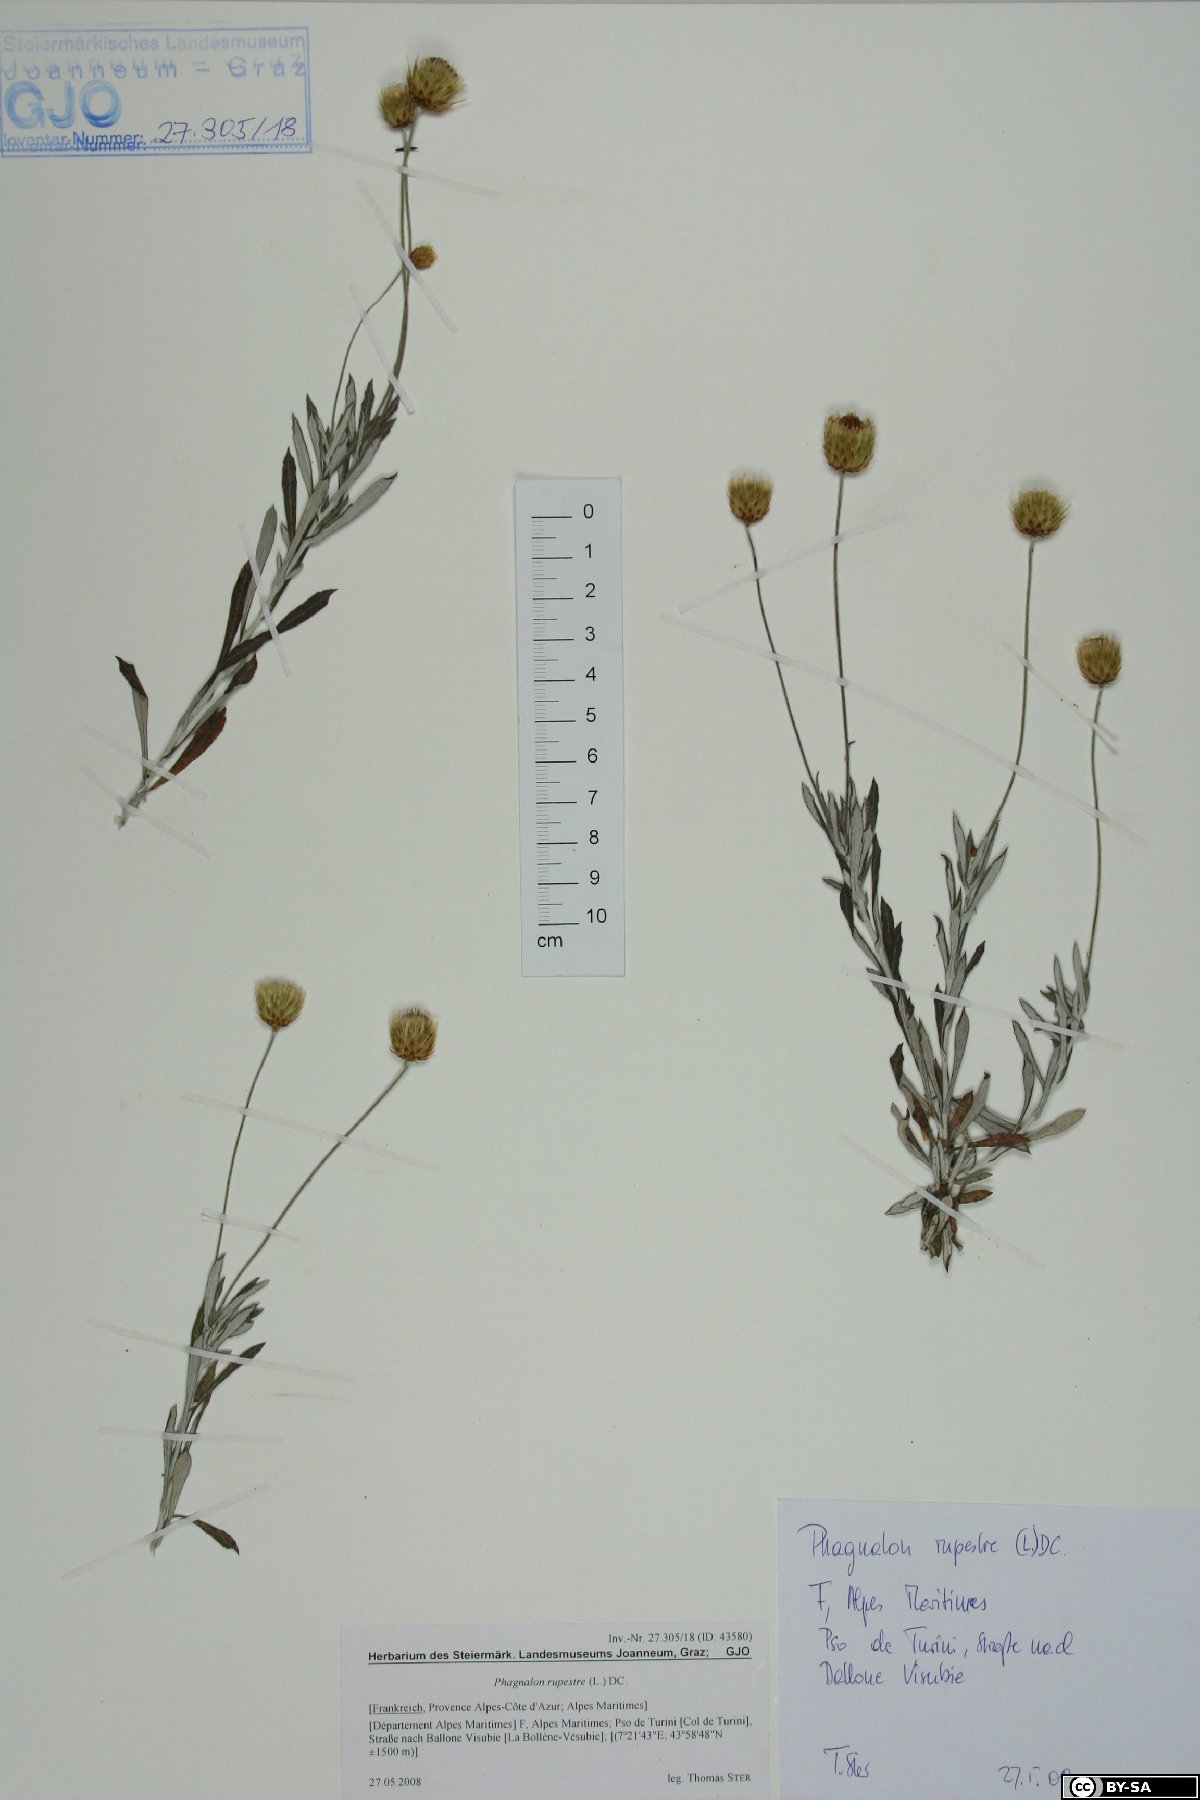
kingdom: Plantae
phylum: Tracheophyta
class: Magnoliopsida
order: Asterales
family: Asteraceae
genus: Phagnalon
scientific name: Phagnalon rupestre
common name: Rock phagnalon
